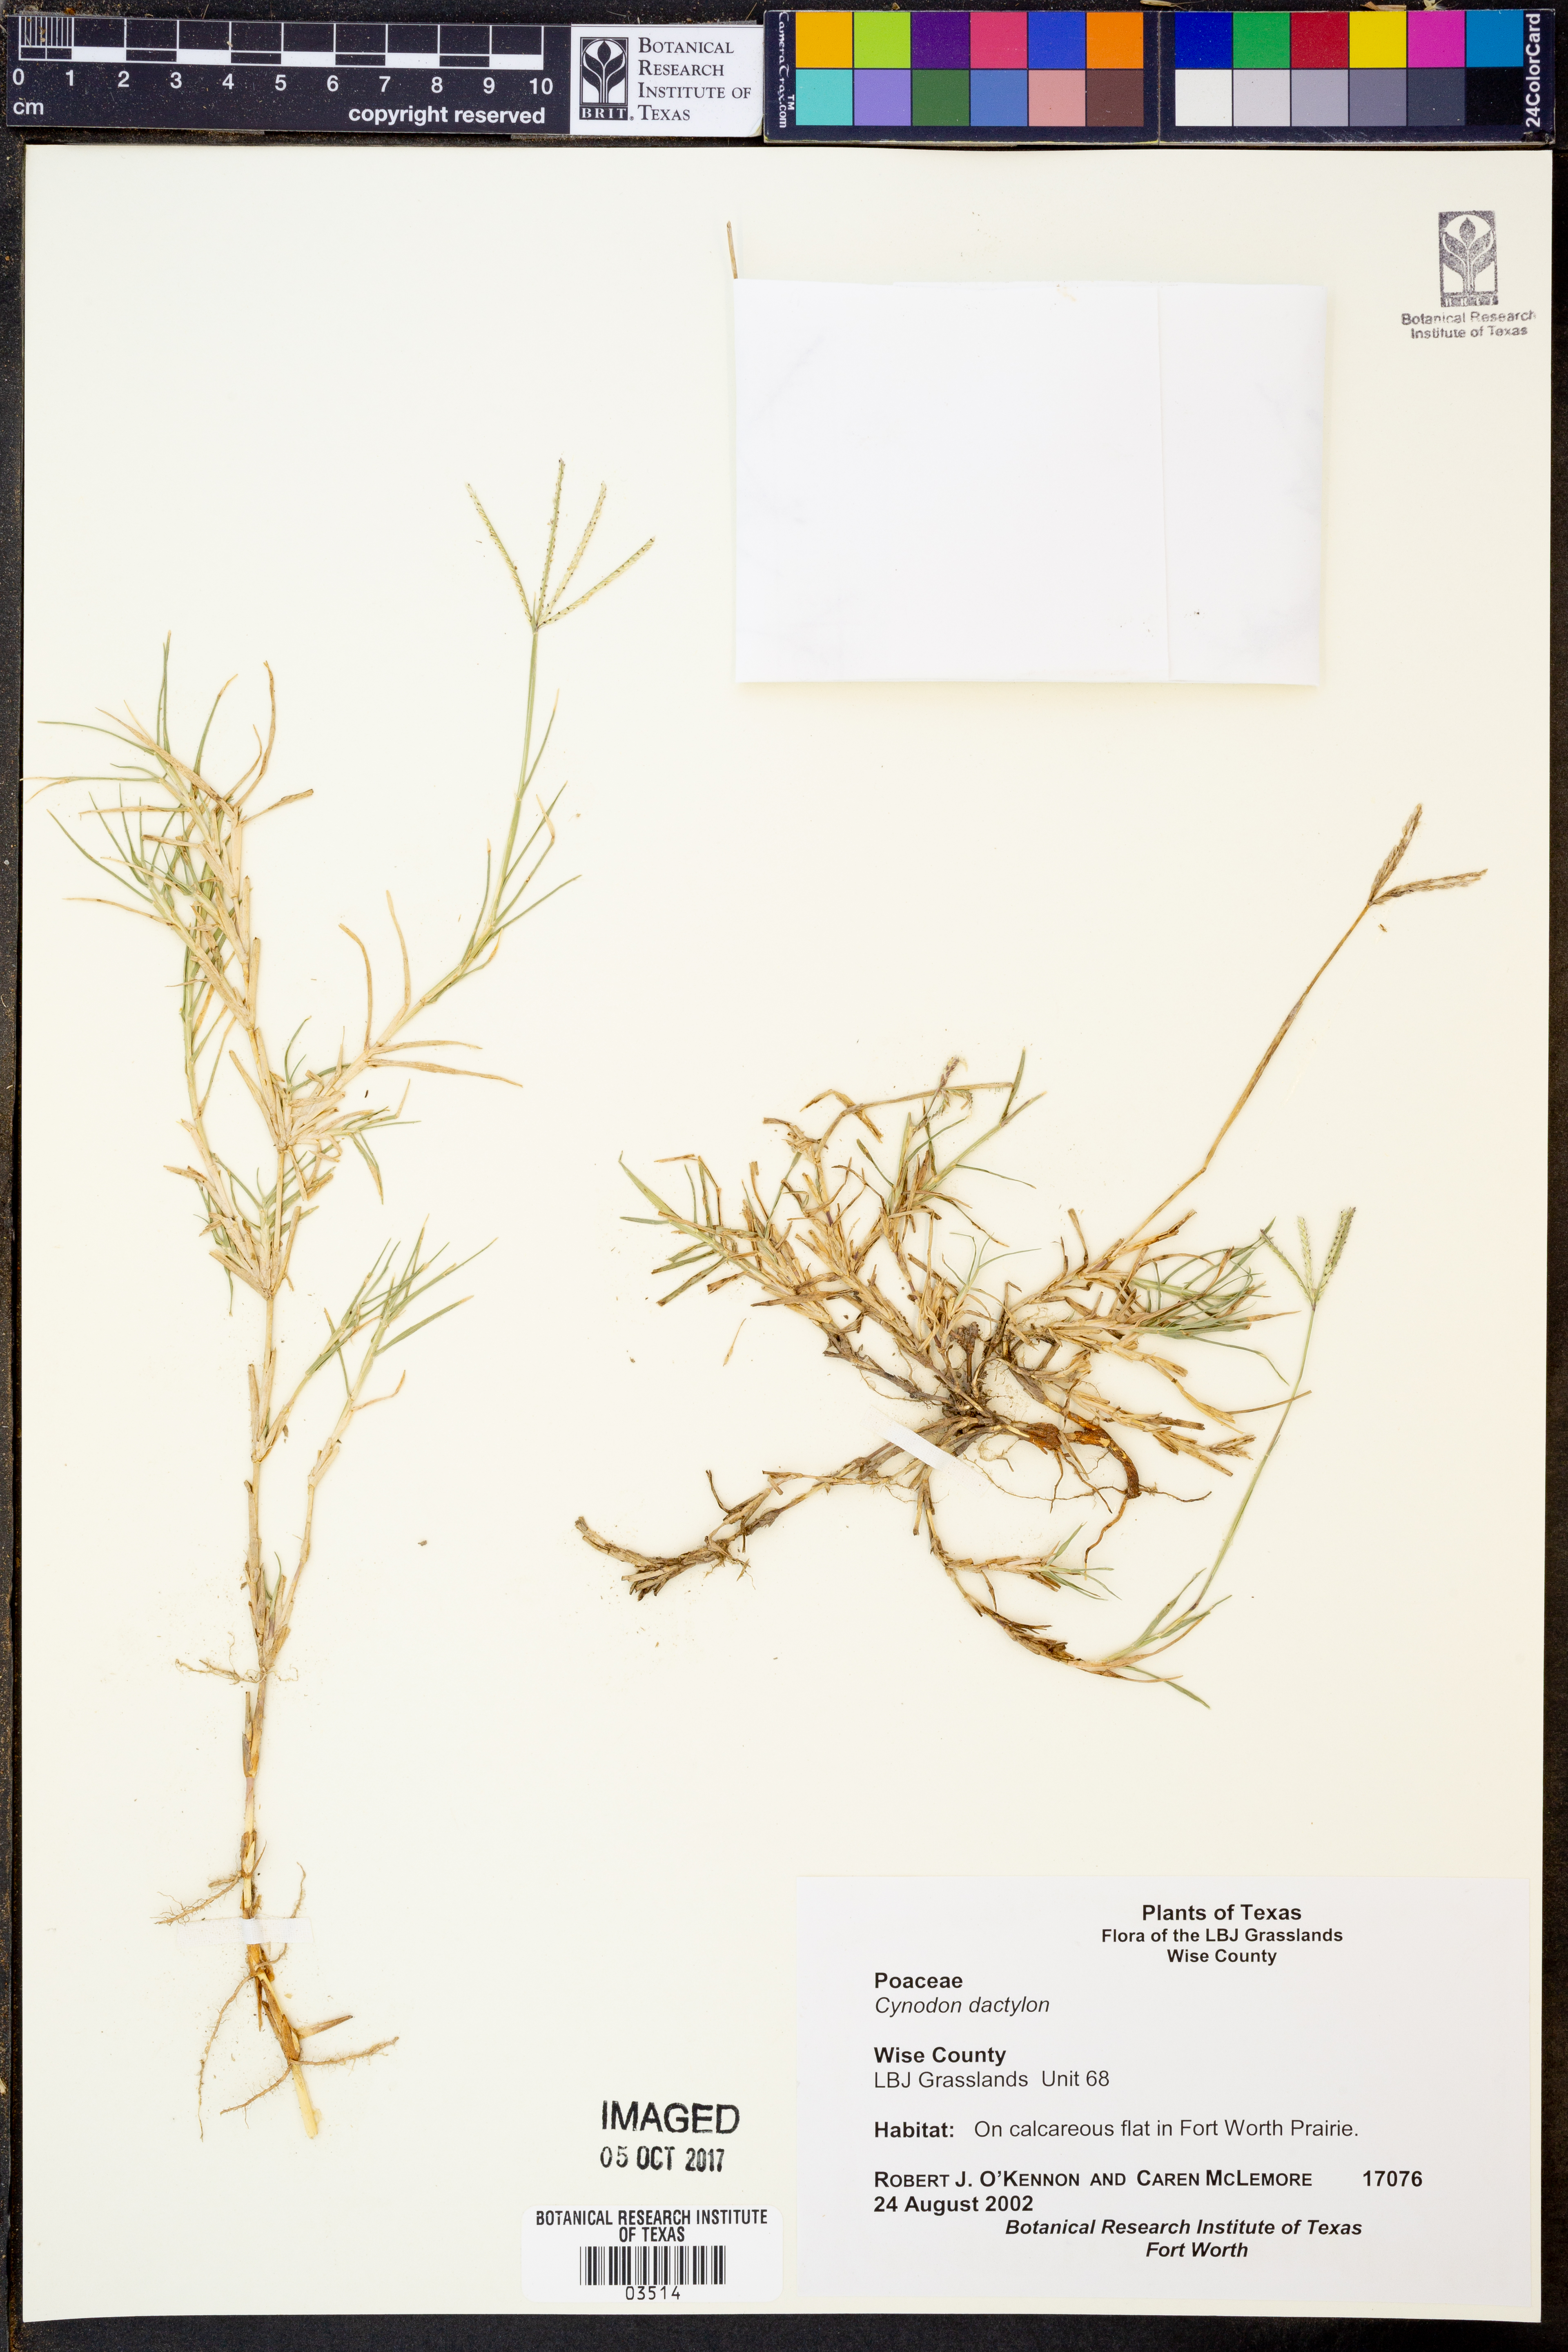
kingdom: Plantae
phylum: Tracheophyta
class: Liliopsida
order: Poales
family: Poaceae
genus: Cynodon
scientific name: Cynodon dactylon
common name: Bermuda grass
